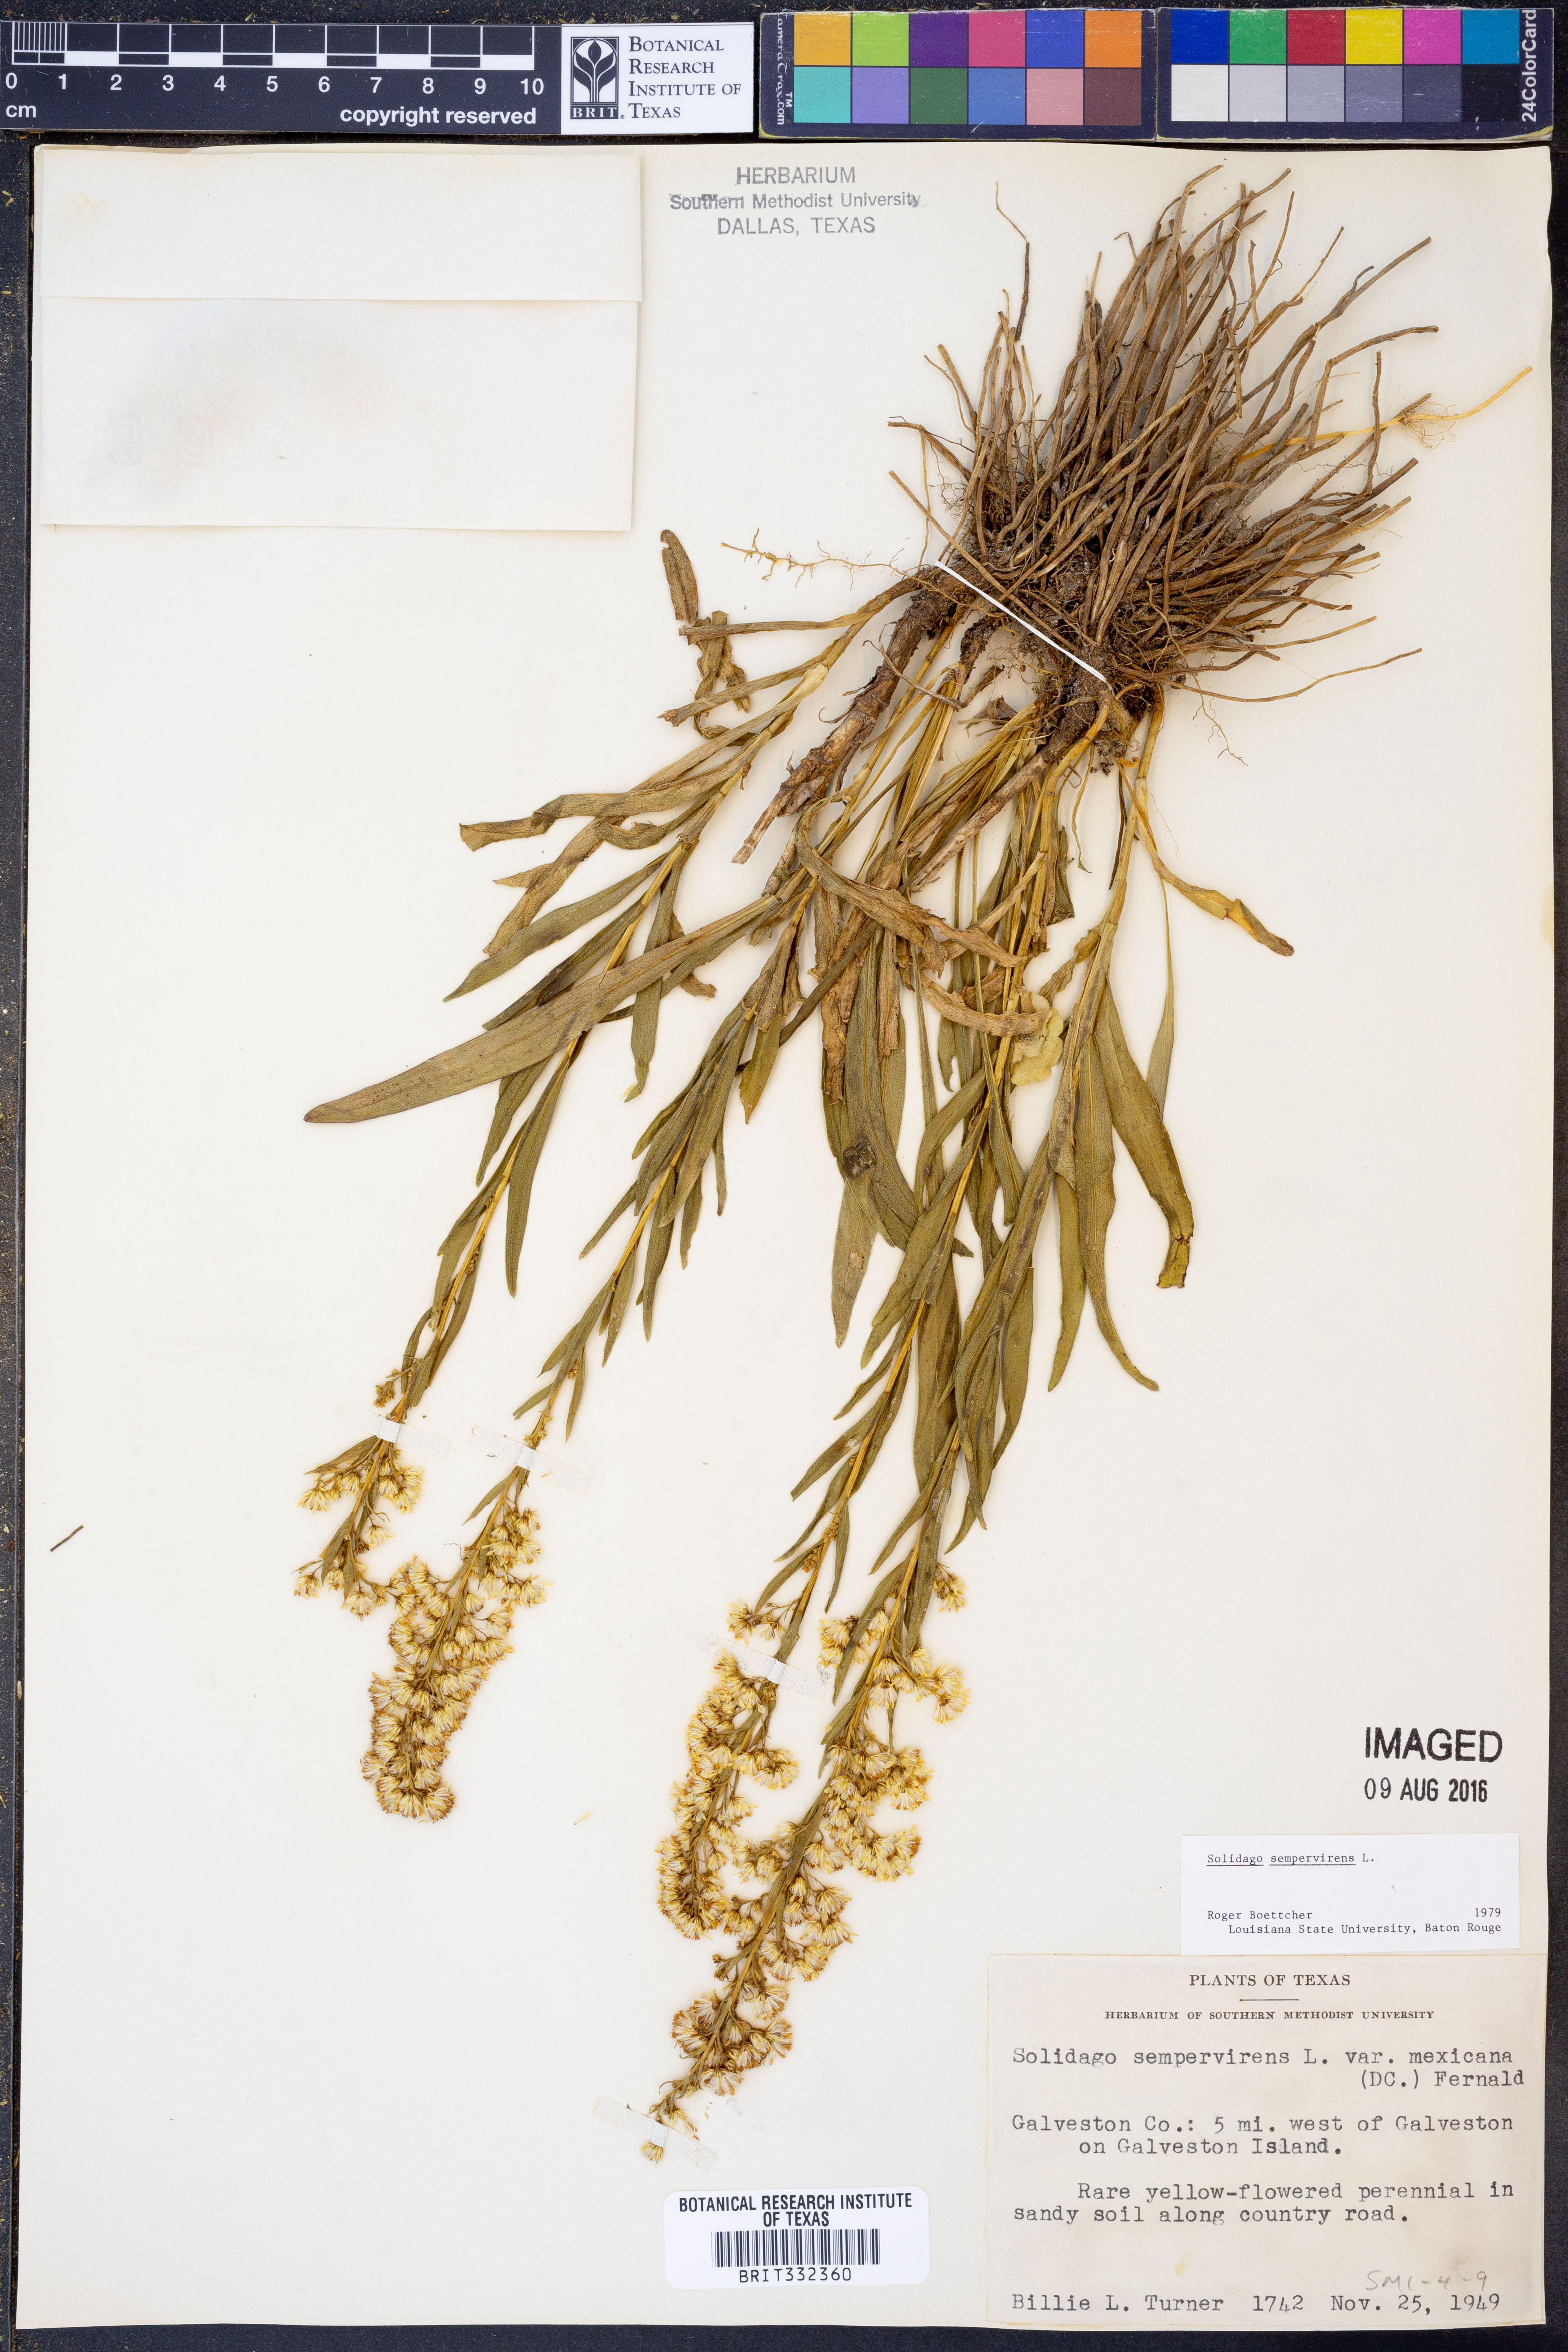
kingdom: Plantae
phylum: Tracheophyta
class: Magnoliopsida
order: Asterales
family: Asteraceae
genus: Solidago
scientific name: Solidago sempervirens
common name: Salt-marsh goldenrod
